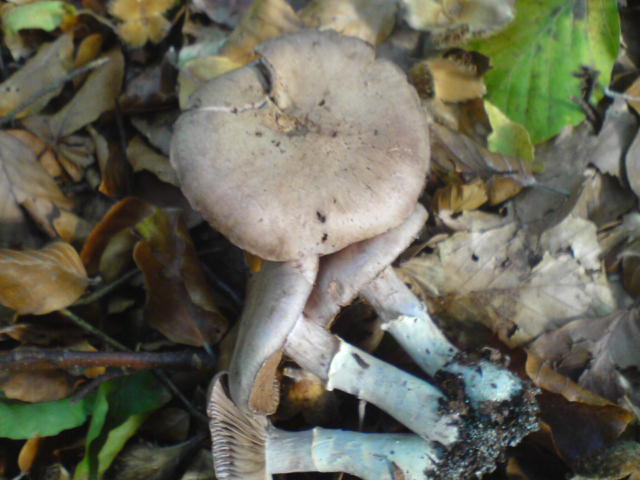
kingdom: Fungi
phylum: Basidiomycota
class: Agaricomycetes
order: Agaricales
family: Cortinariaceae
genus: Cortinarius
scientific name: Cortinarius torvus
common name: champignonagtig slørhat
